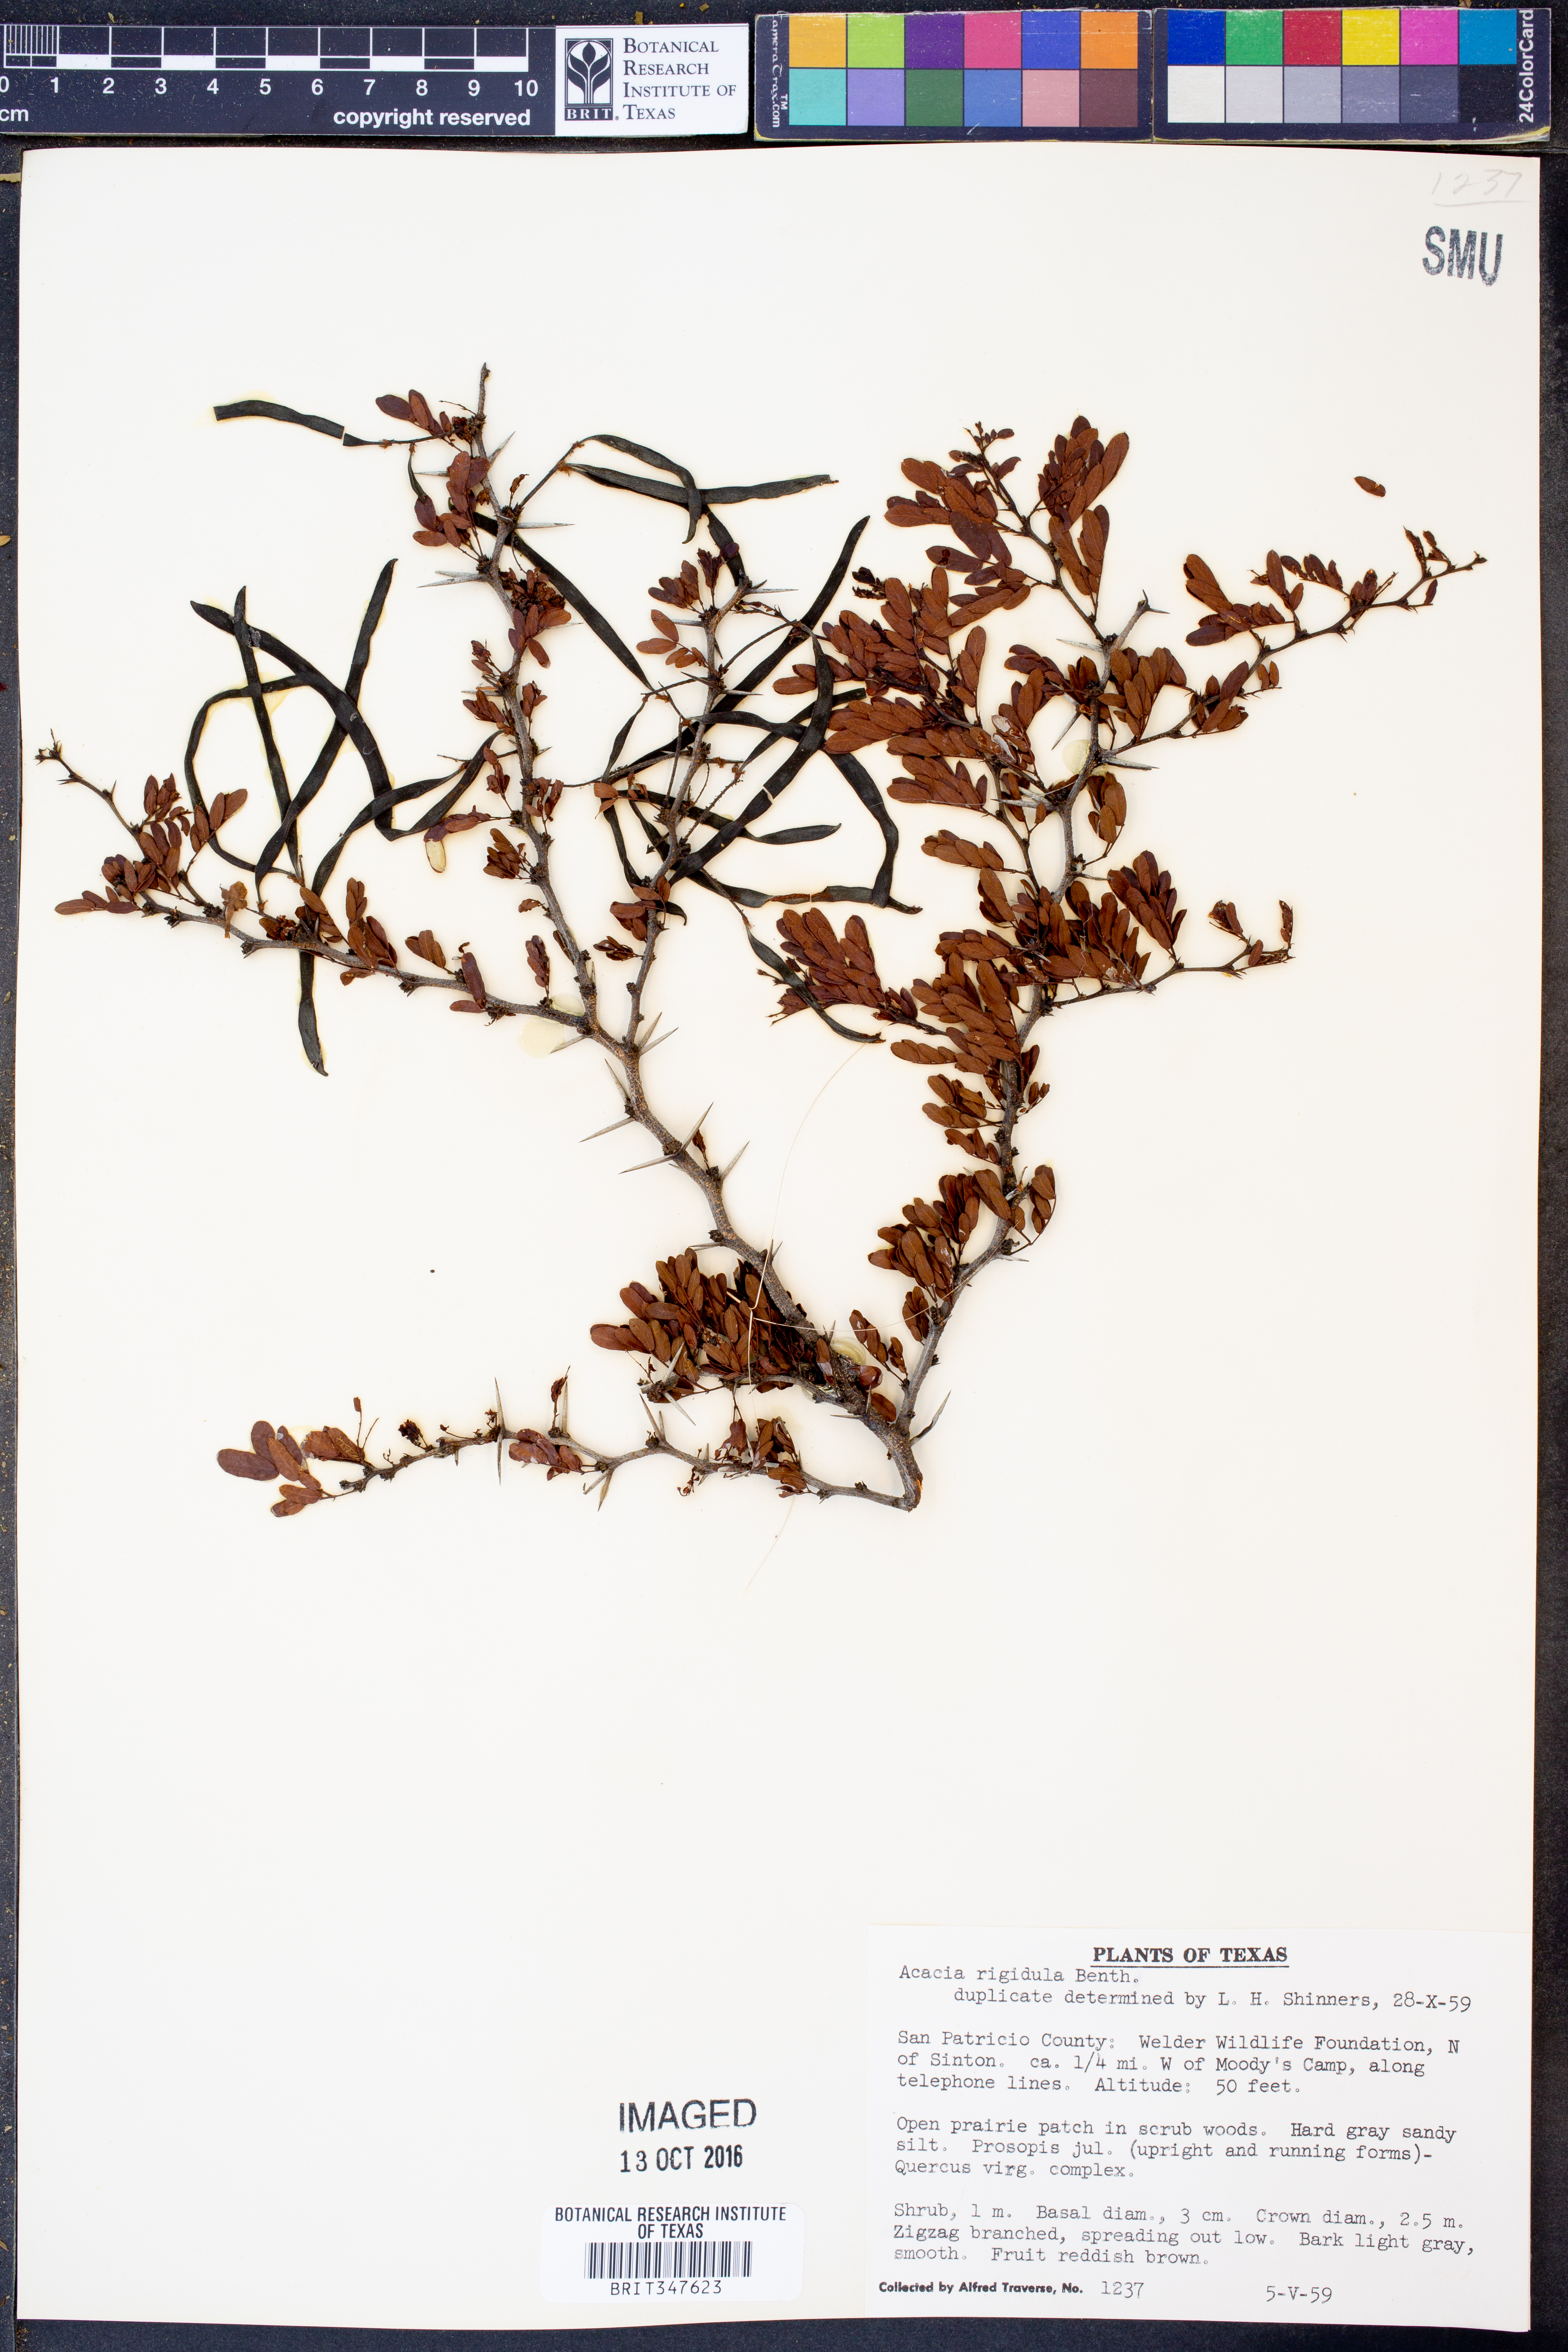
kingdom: Plantae
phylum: Tracheophyta
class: Magnoliopsida
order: Fabales
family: Fabaceae
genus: Vachellia
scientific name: Vachellia rigidula
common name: Blackbrush
